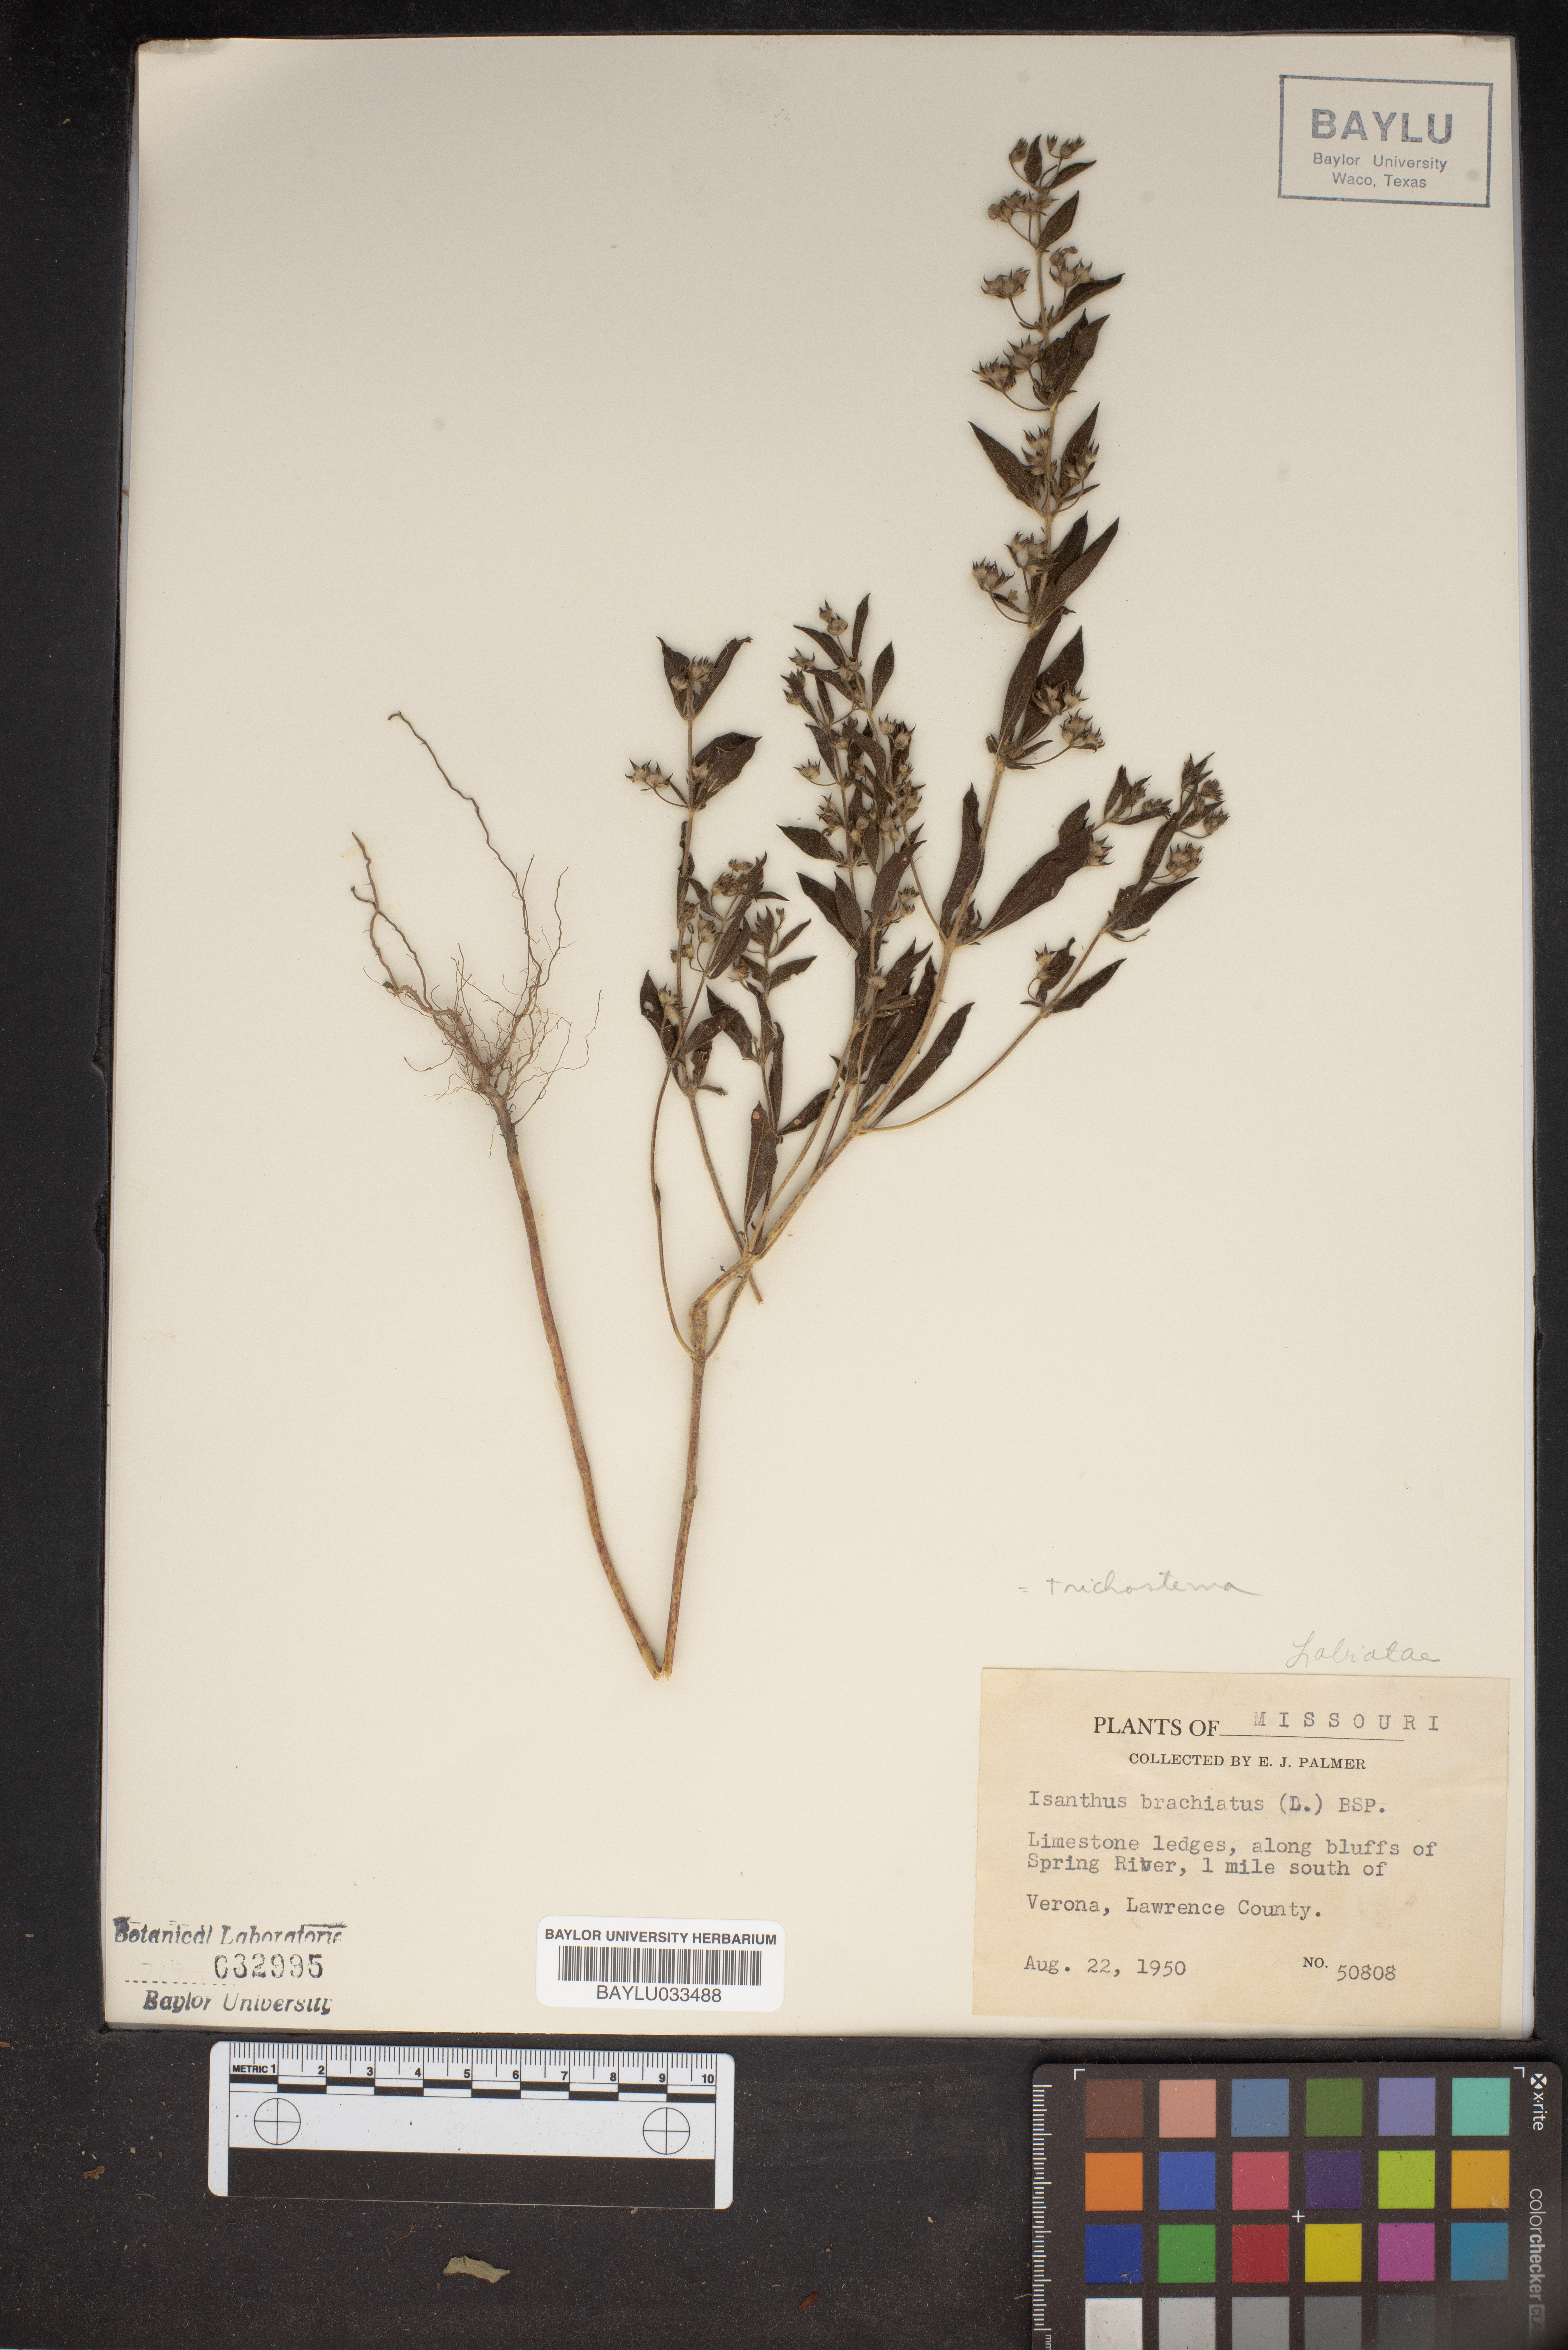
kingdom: Plantae
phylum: Tracheophyta
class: Magnoliopsida
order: Lamiales
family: Lamiaceae
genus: Trichostema
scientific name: Trichostema brachiatum
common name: False pennyroyal
